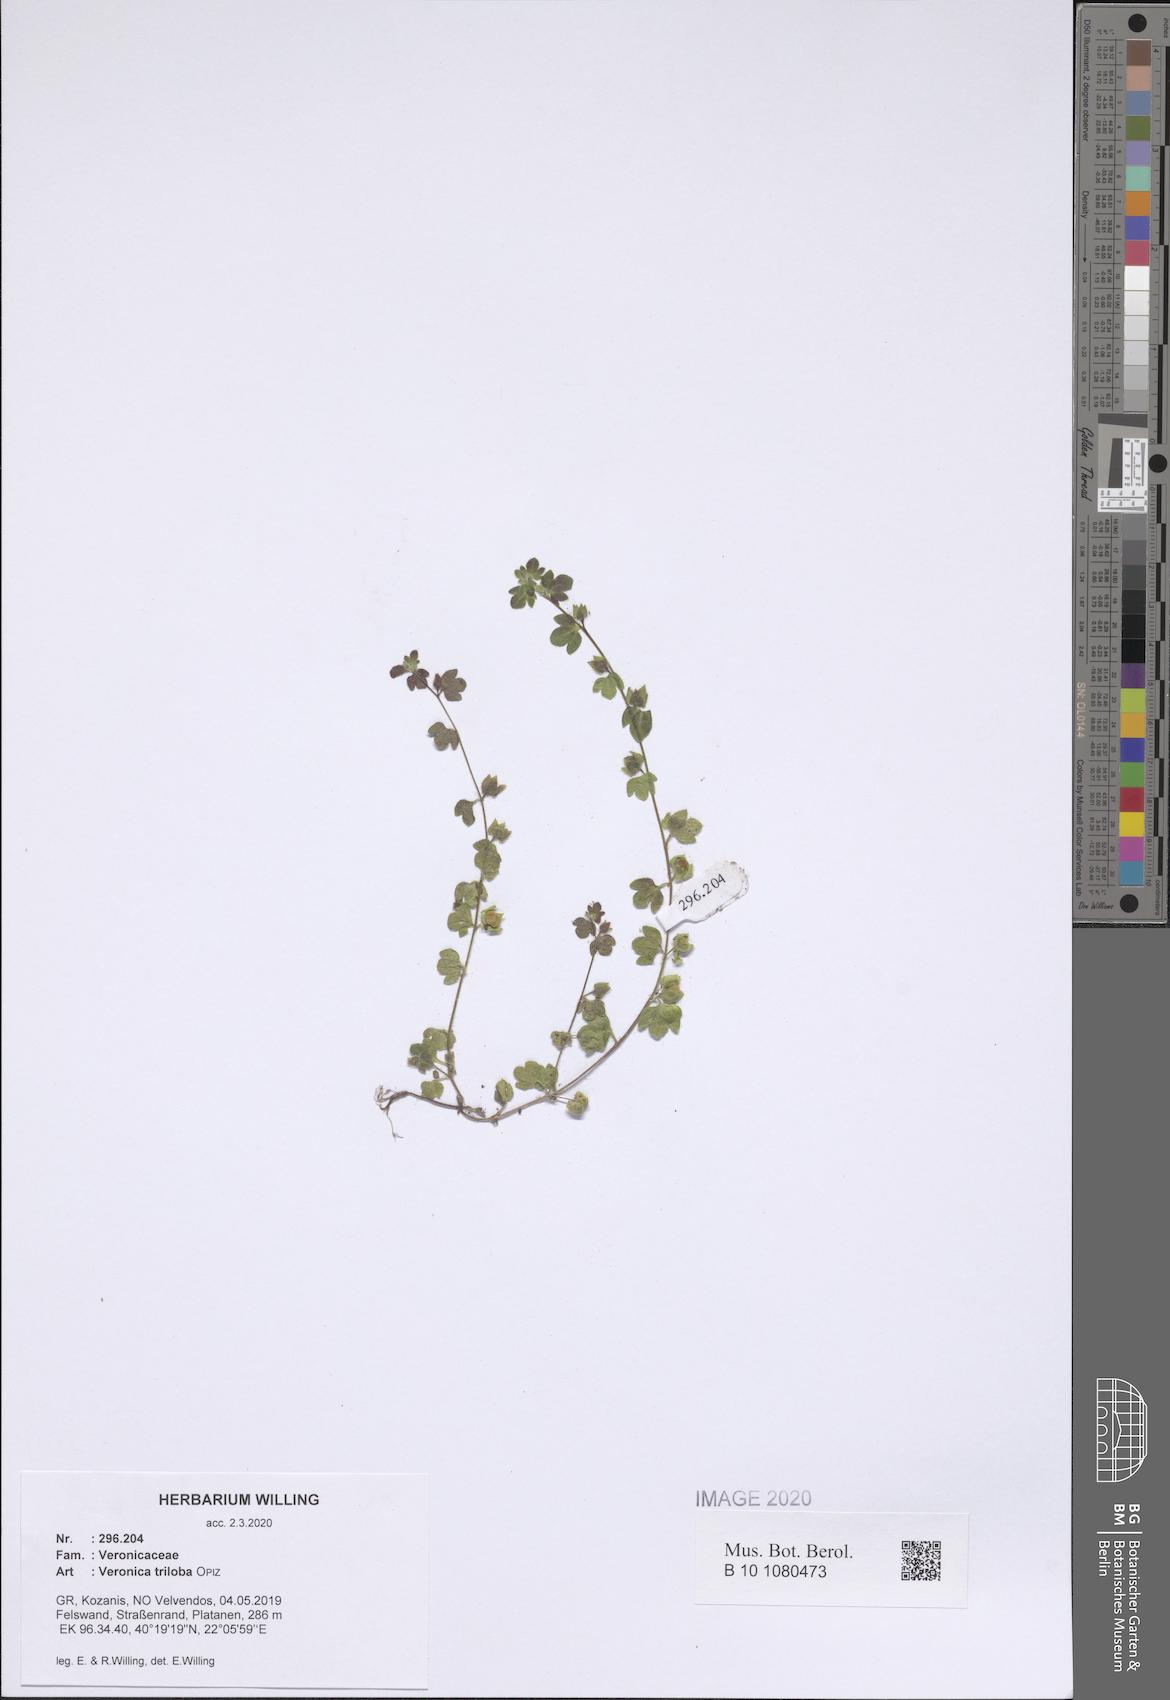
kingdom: Plantae
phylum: Tracheophyta
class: Magnoliopsida
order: Lamiales
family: Plantaginaceae
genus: Veronica
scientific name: Veronica triloba
